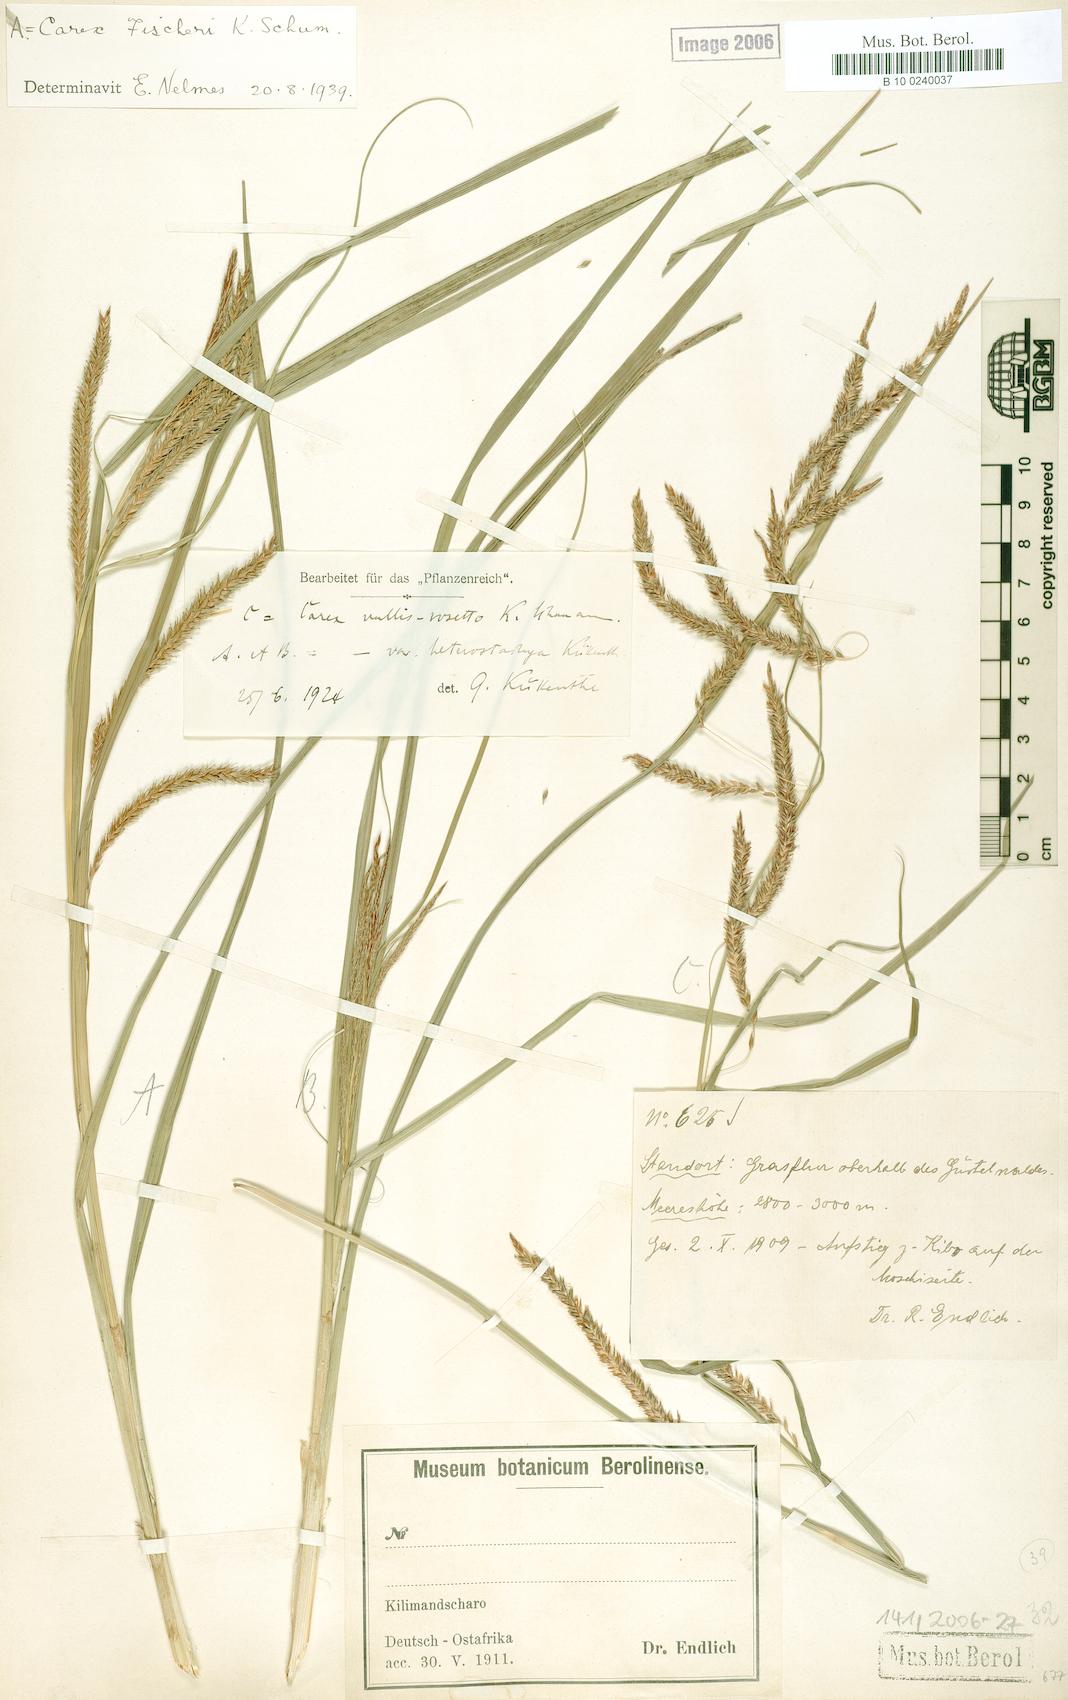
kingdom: Plantae
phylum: Tracheophyta
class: Liliopsida
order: Poales
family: Cyperaceae
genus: Carex
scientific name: Carex fischeri
